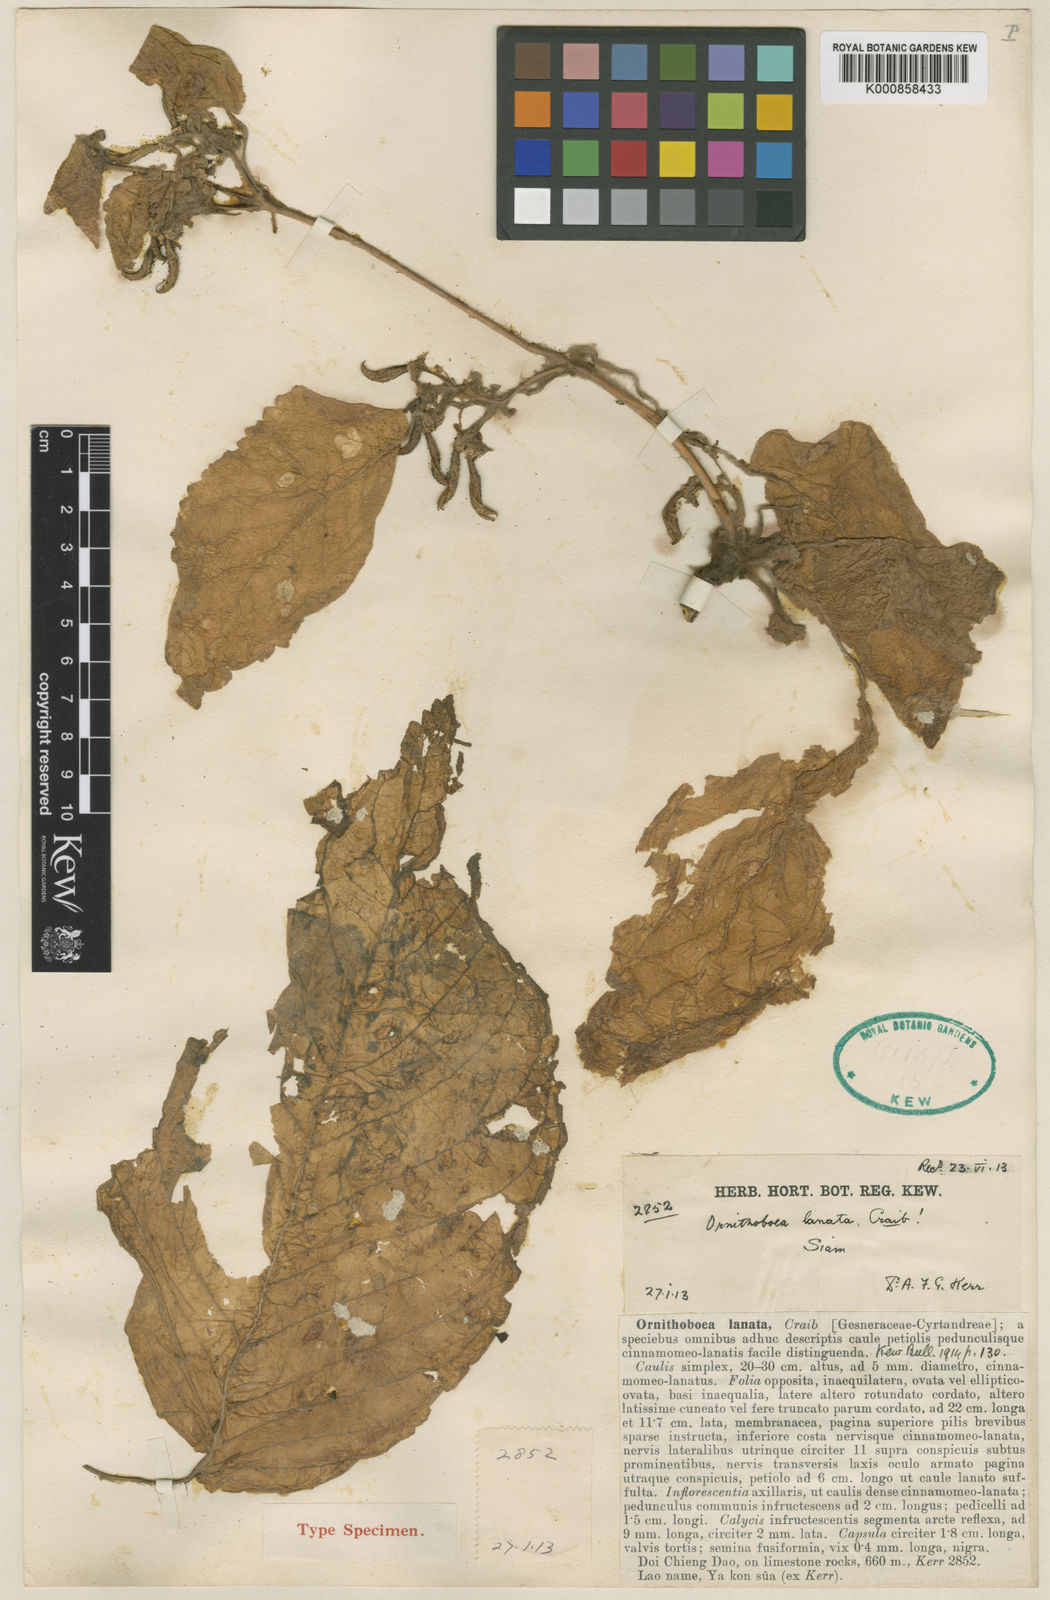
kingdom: Plantae
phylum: Tracheophyta
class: Magnoliopsida
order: Lamiales
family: Gesneriaceae
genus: Ornithoboea
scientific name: Ornithoboea arachnoidea
